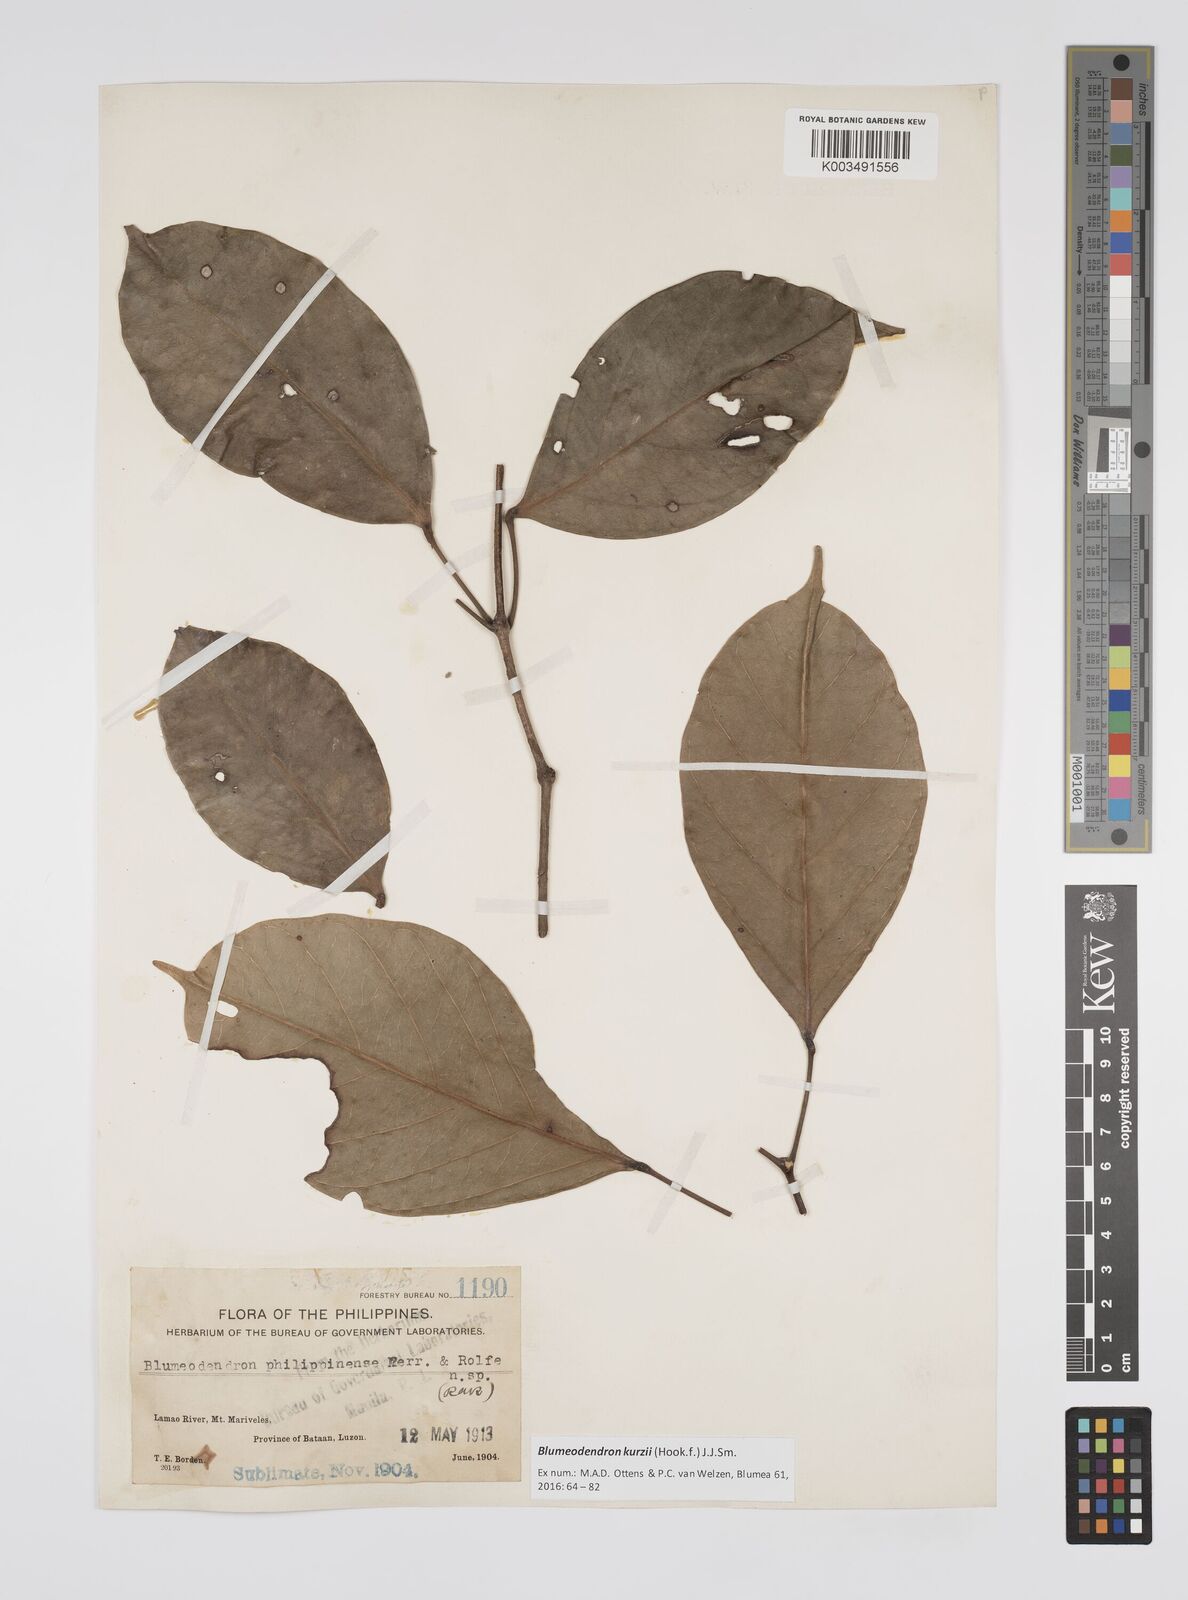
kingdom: Plantae
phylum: Tracheophyta
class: Magnoliopsida
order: Malpighiales
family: Euphorbiaceae
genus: Blumeodendron
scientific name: Blumeodendron kurzii
